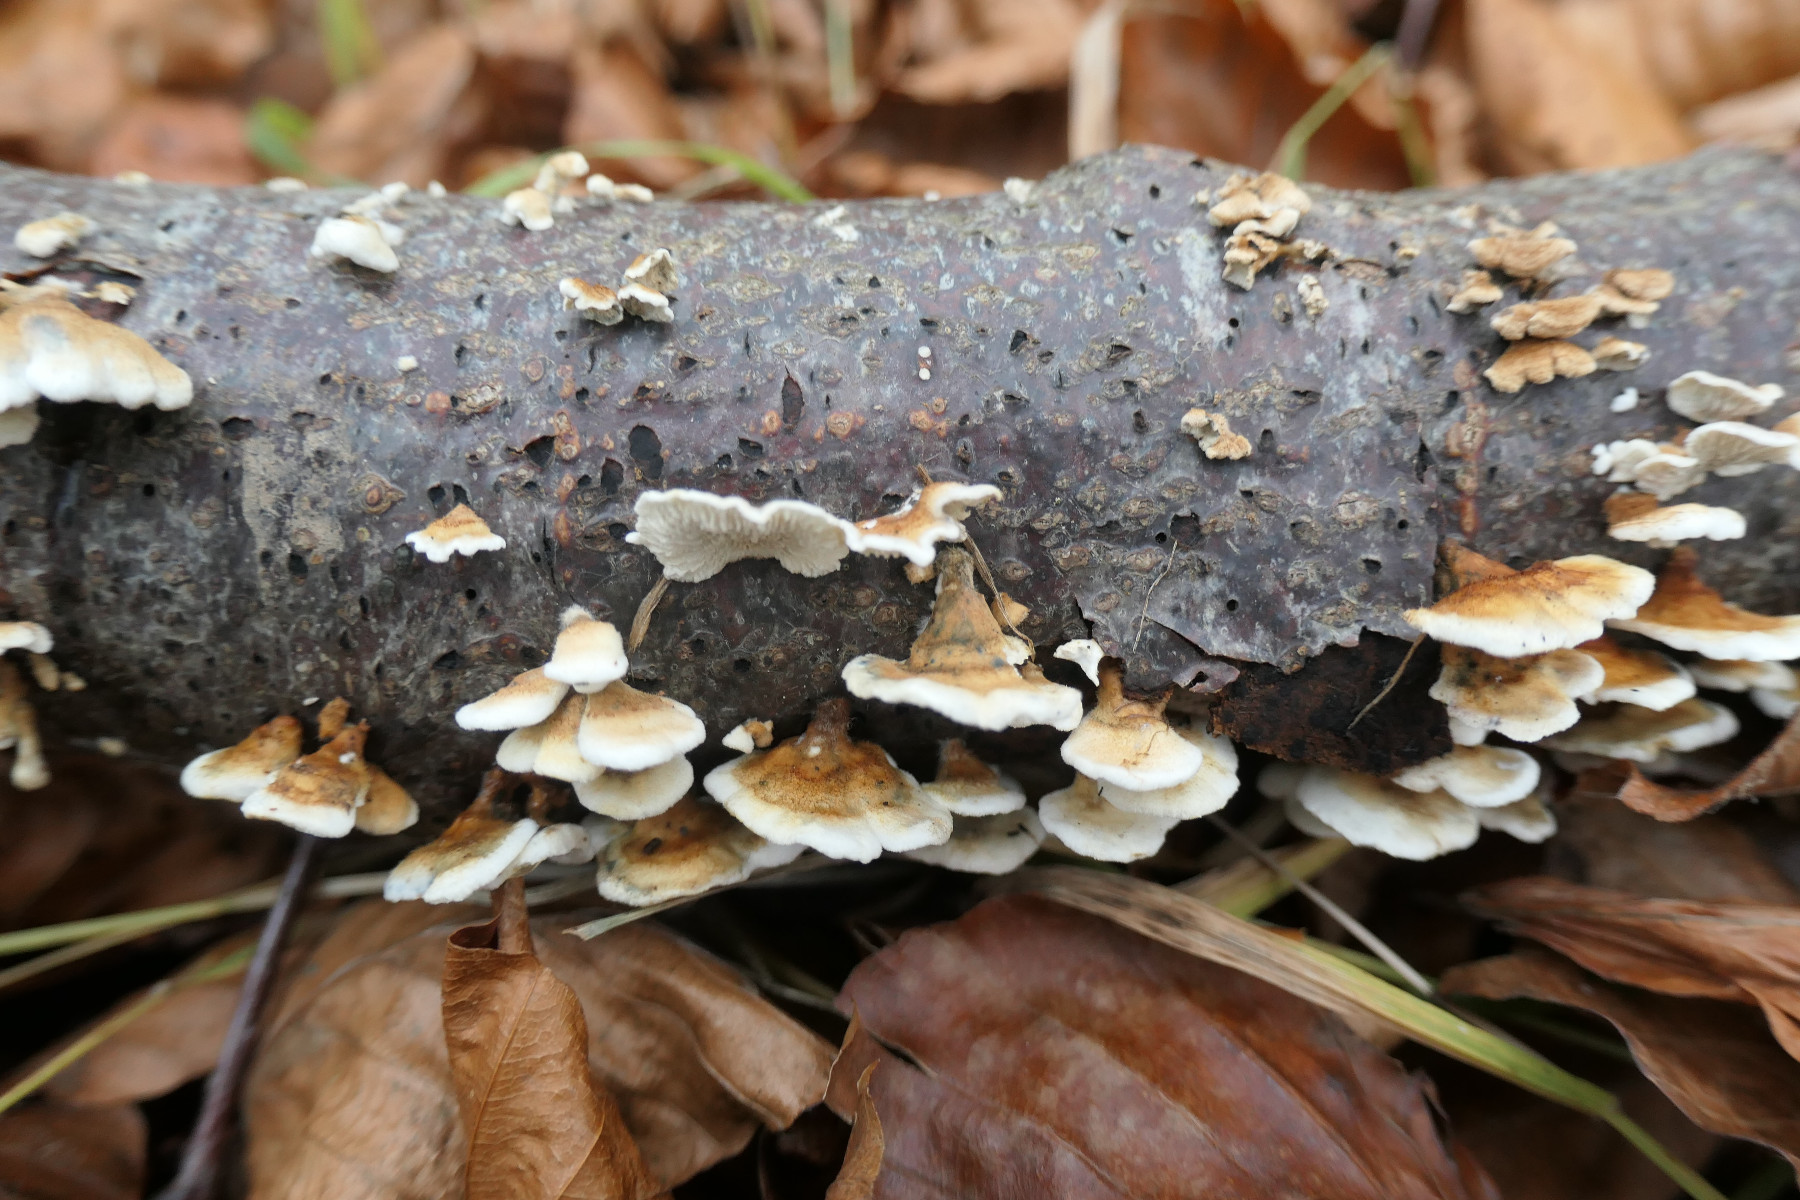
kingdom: Fungi
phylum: Basidiomycota
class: Agaricomycetes
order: Amylocorticiales
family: Amylocorticiaceae
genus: Plicaturopsis
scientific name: Plicaturopsis crispa
